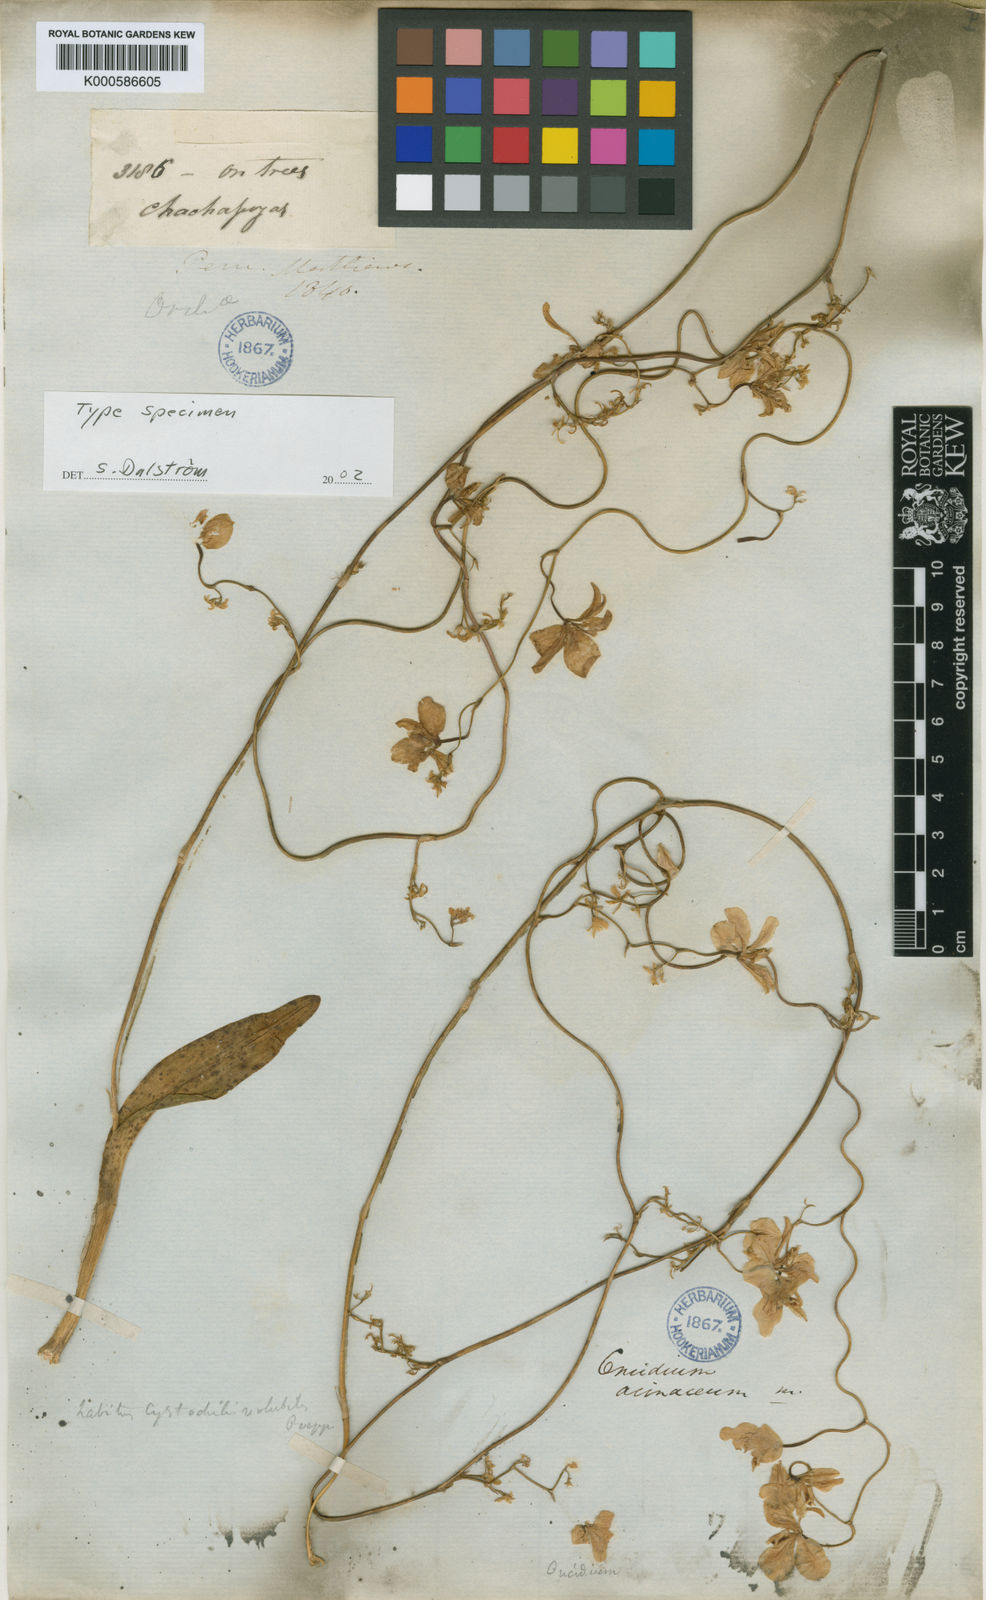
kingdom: Plantae
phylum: Tracheophyta
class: Liliopsida
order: Asparagales
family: Orchidaceae
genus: Oncidium
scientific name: Oncidium acinaceum
